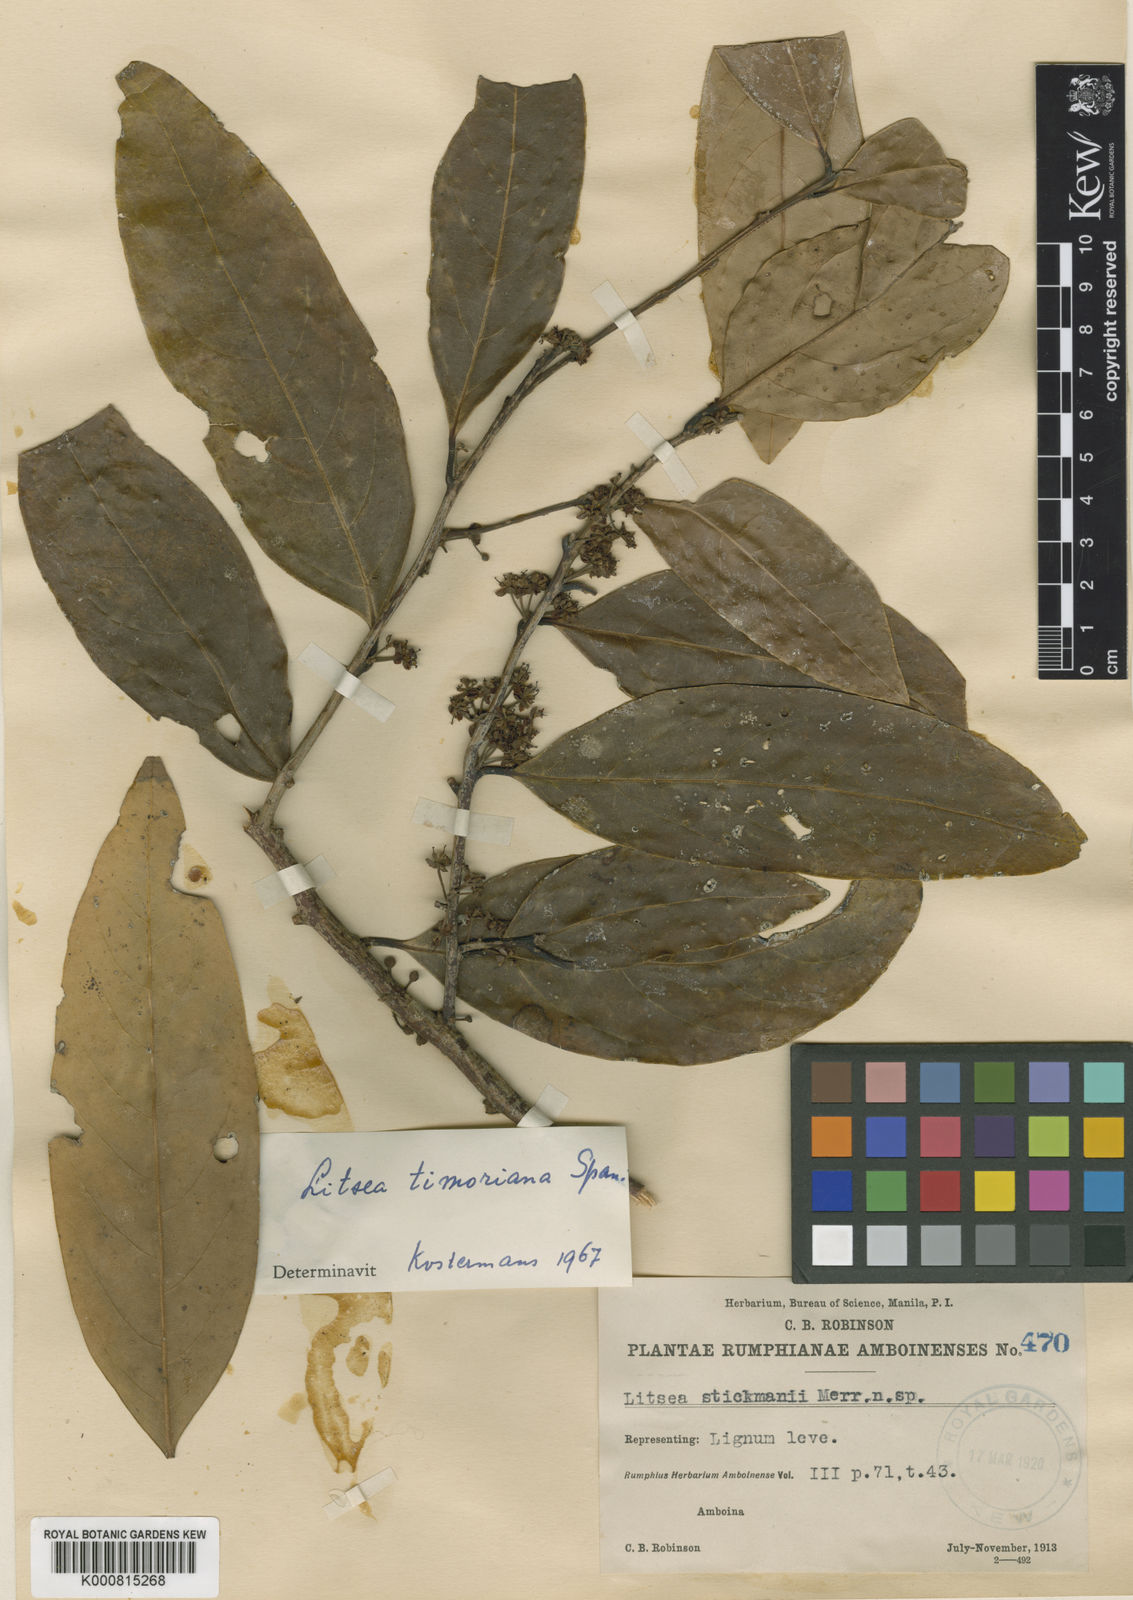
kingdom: Plantae
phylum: Tracheophyta
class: Magnoliopsida
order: Laurales
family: Lauraceae
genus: Litsea
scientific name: Litsea timoriana
